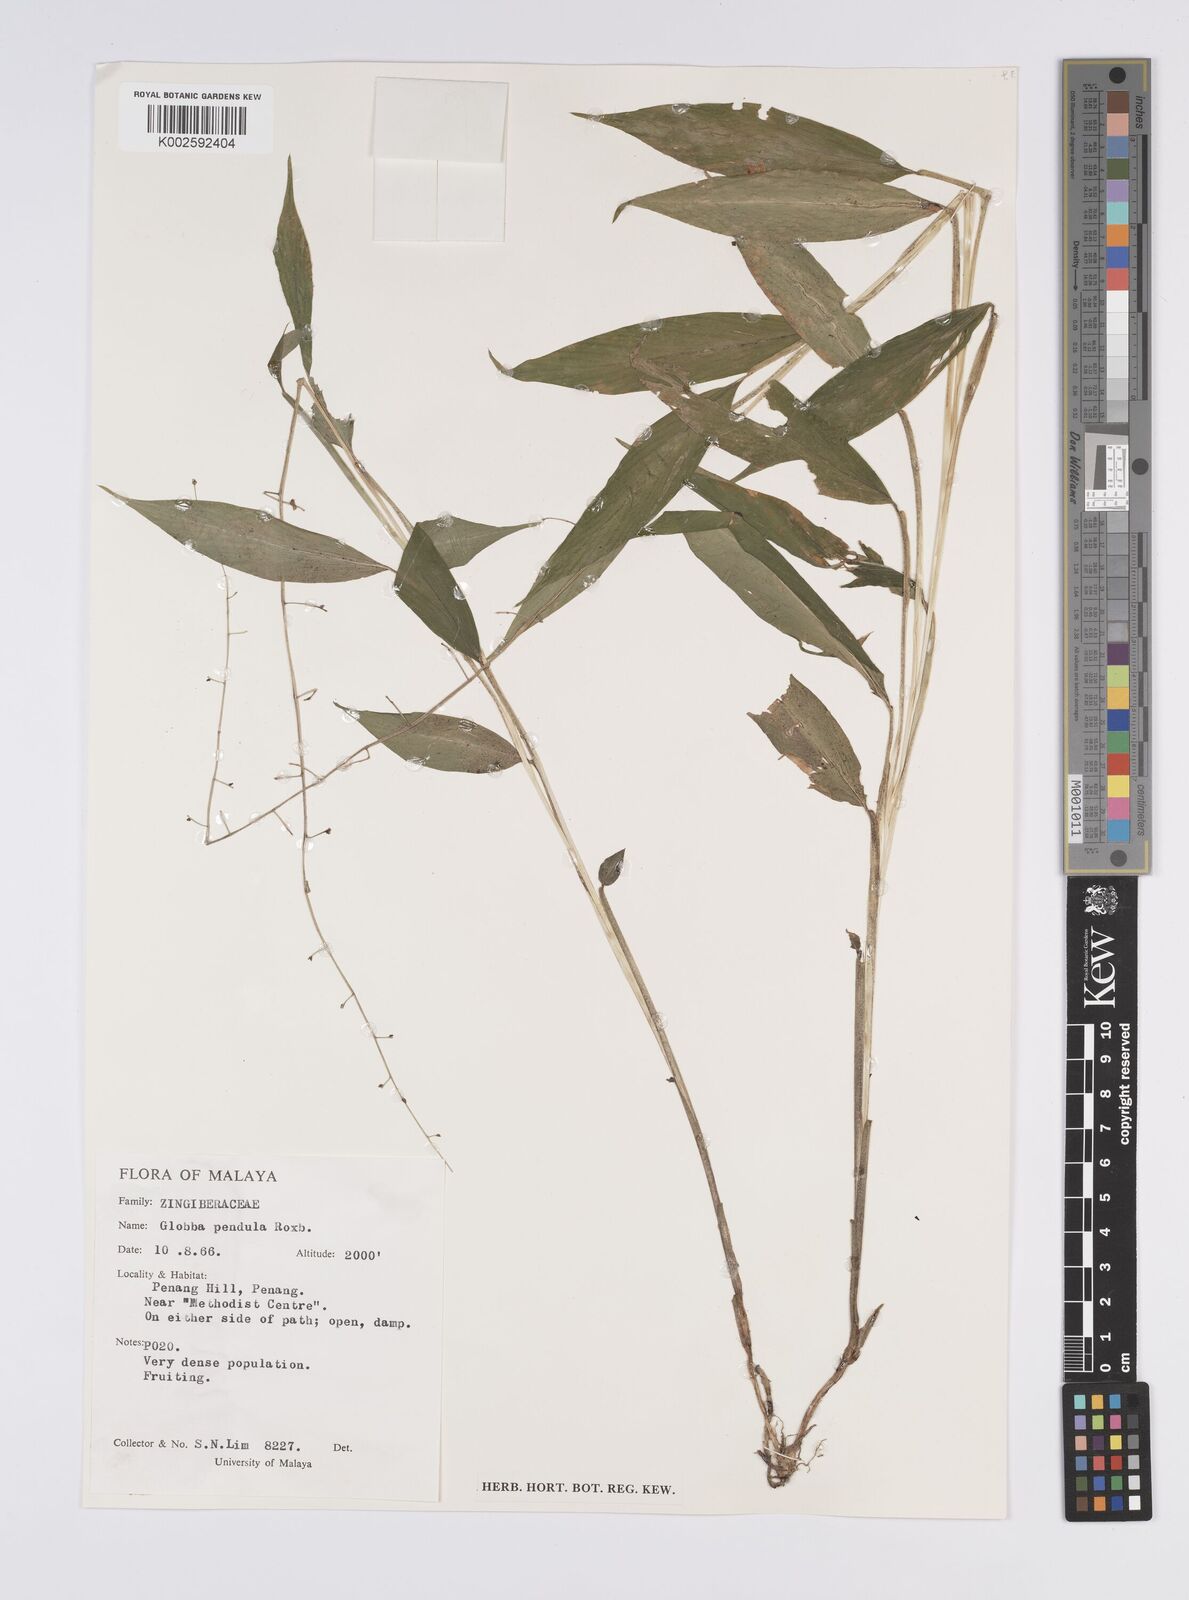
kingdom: Plantae
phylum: Tracheophyta
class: Liliopsida
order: Zingiberales
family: Zingiberaceae
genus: Globba
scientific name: Globba pendula
